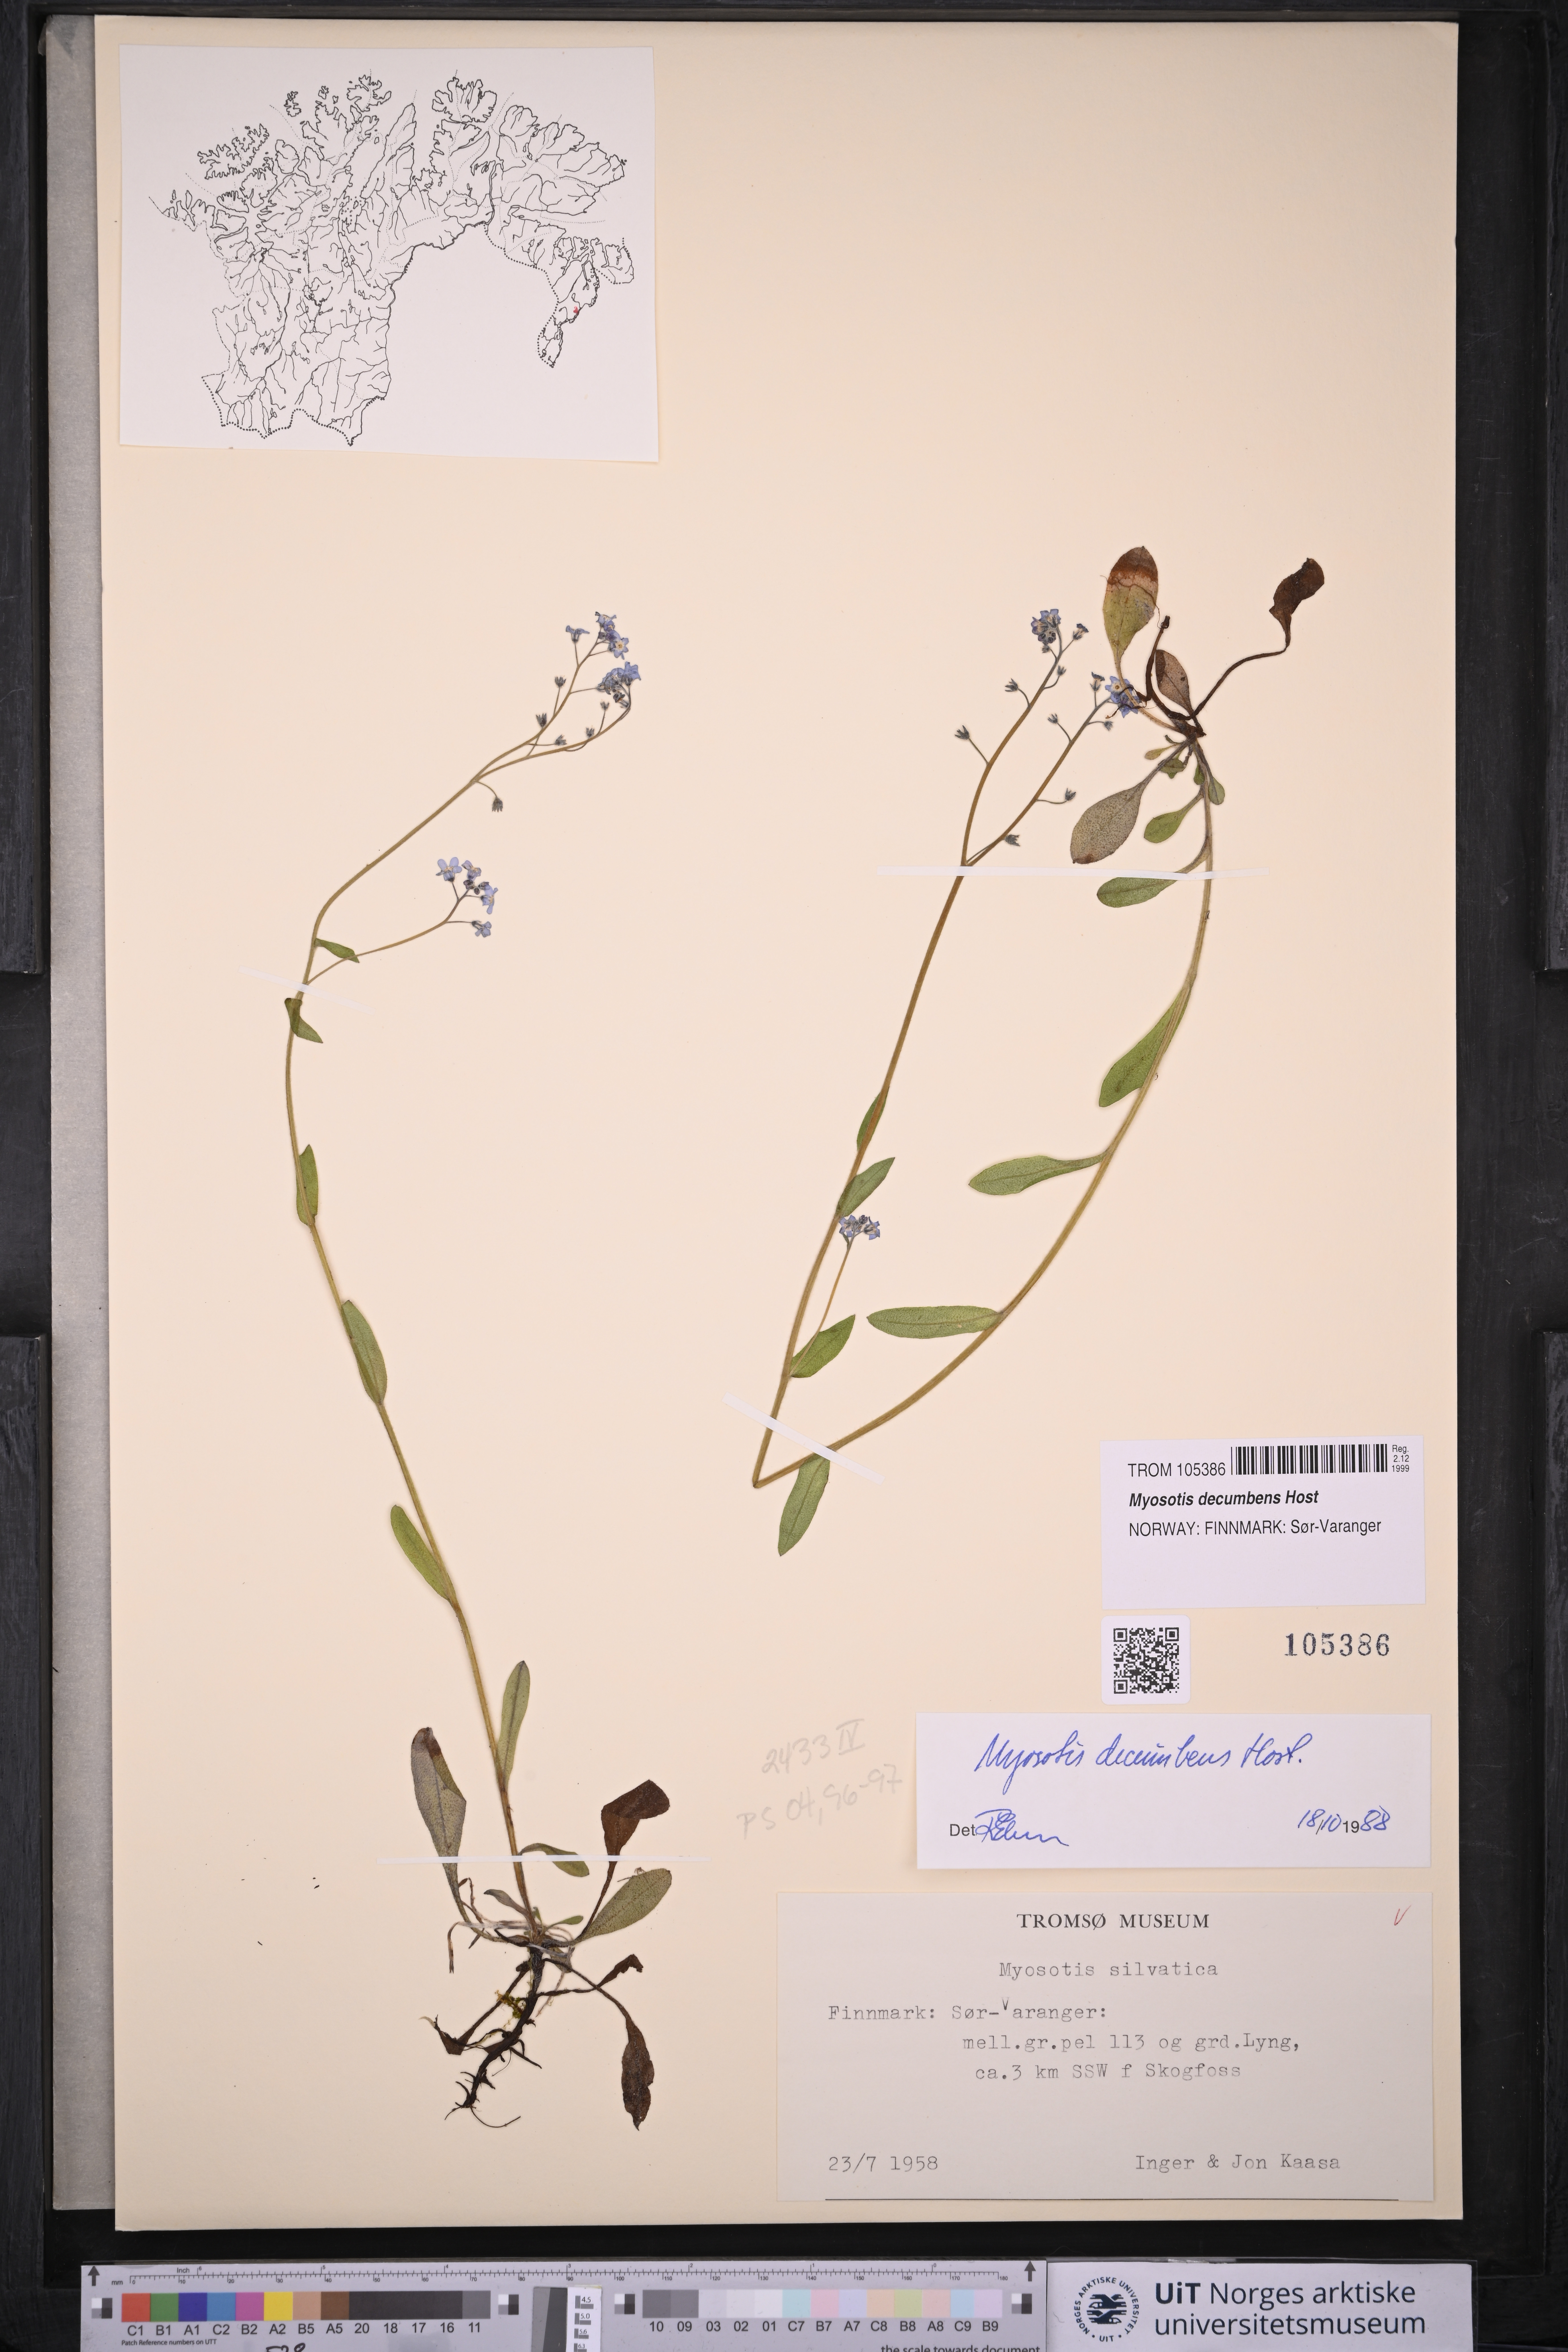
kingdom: Plantae
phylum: Tracheophyta
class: Magnoliopsida
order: Boraginales
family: Boraginaceae
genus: Myosotis
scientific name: Myosotis decumbens
